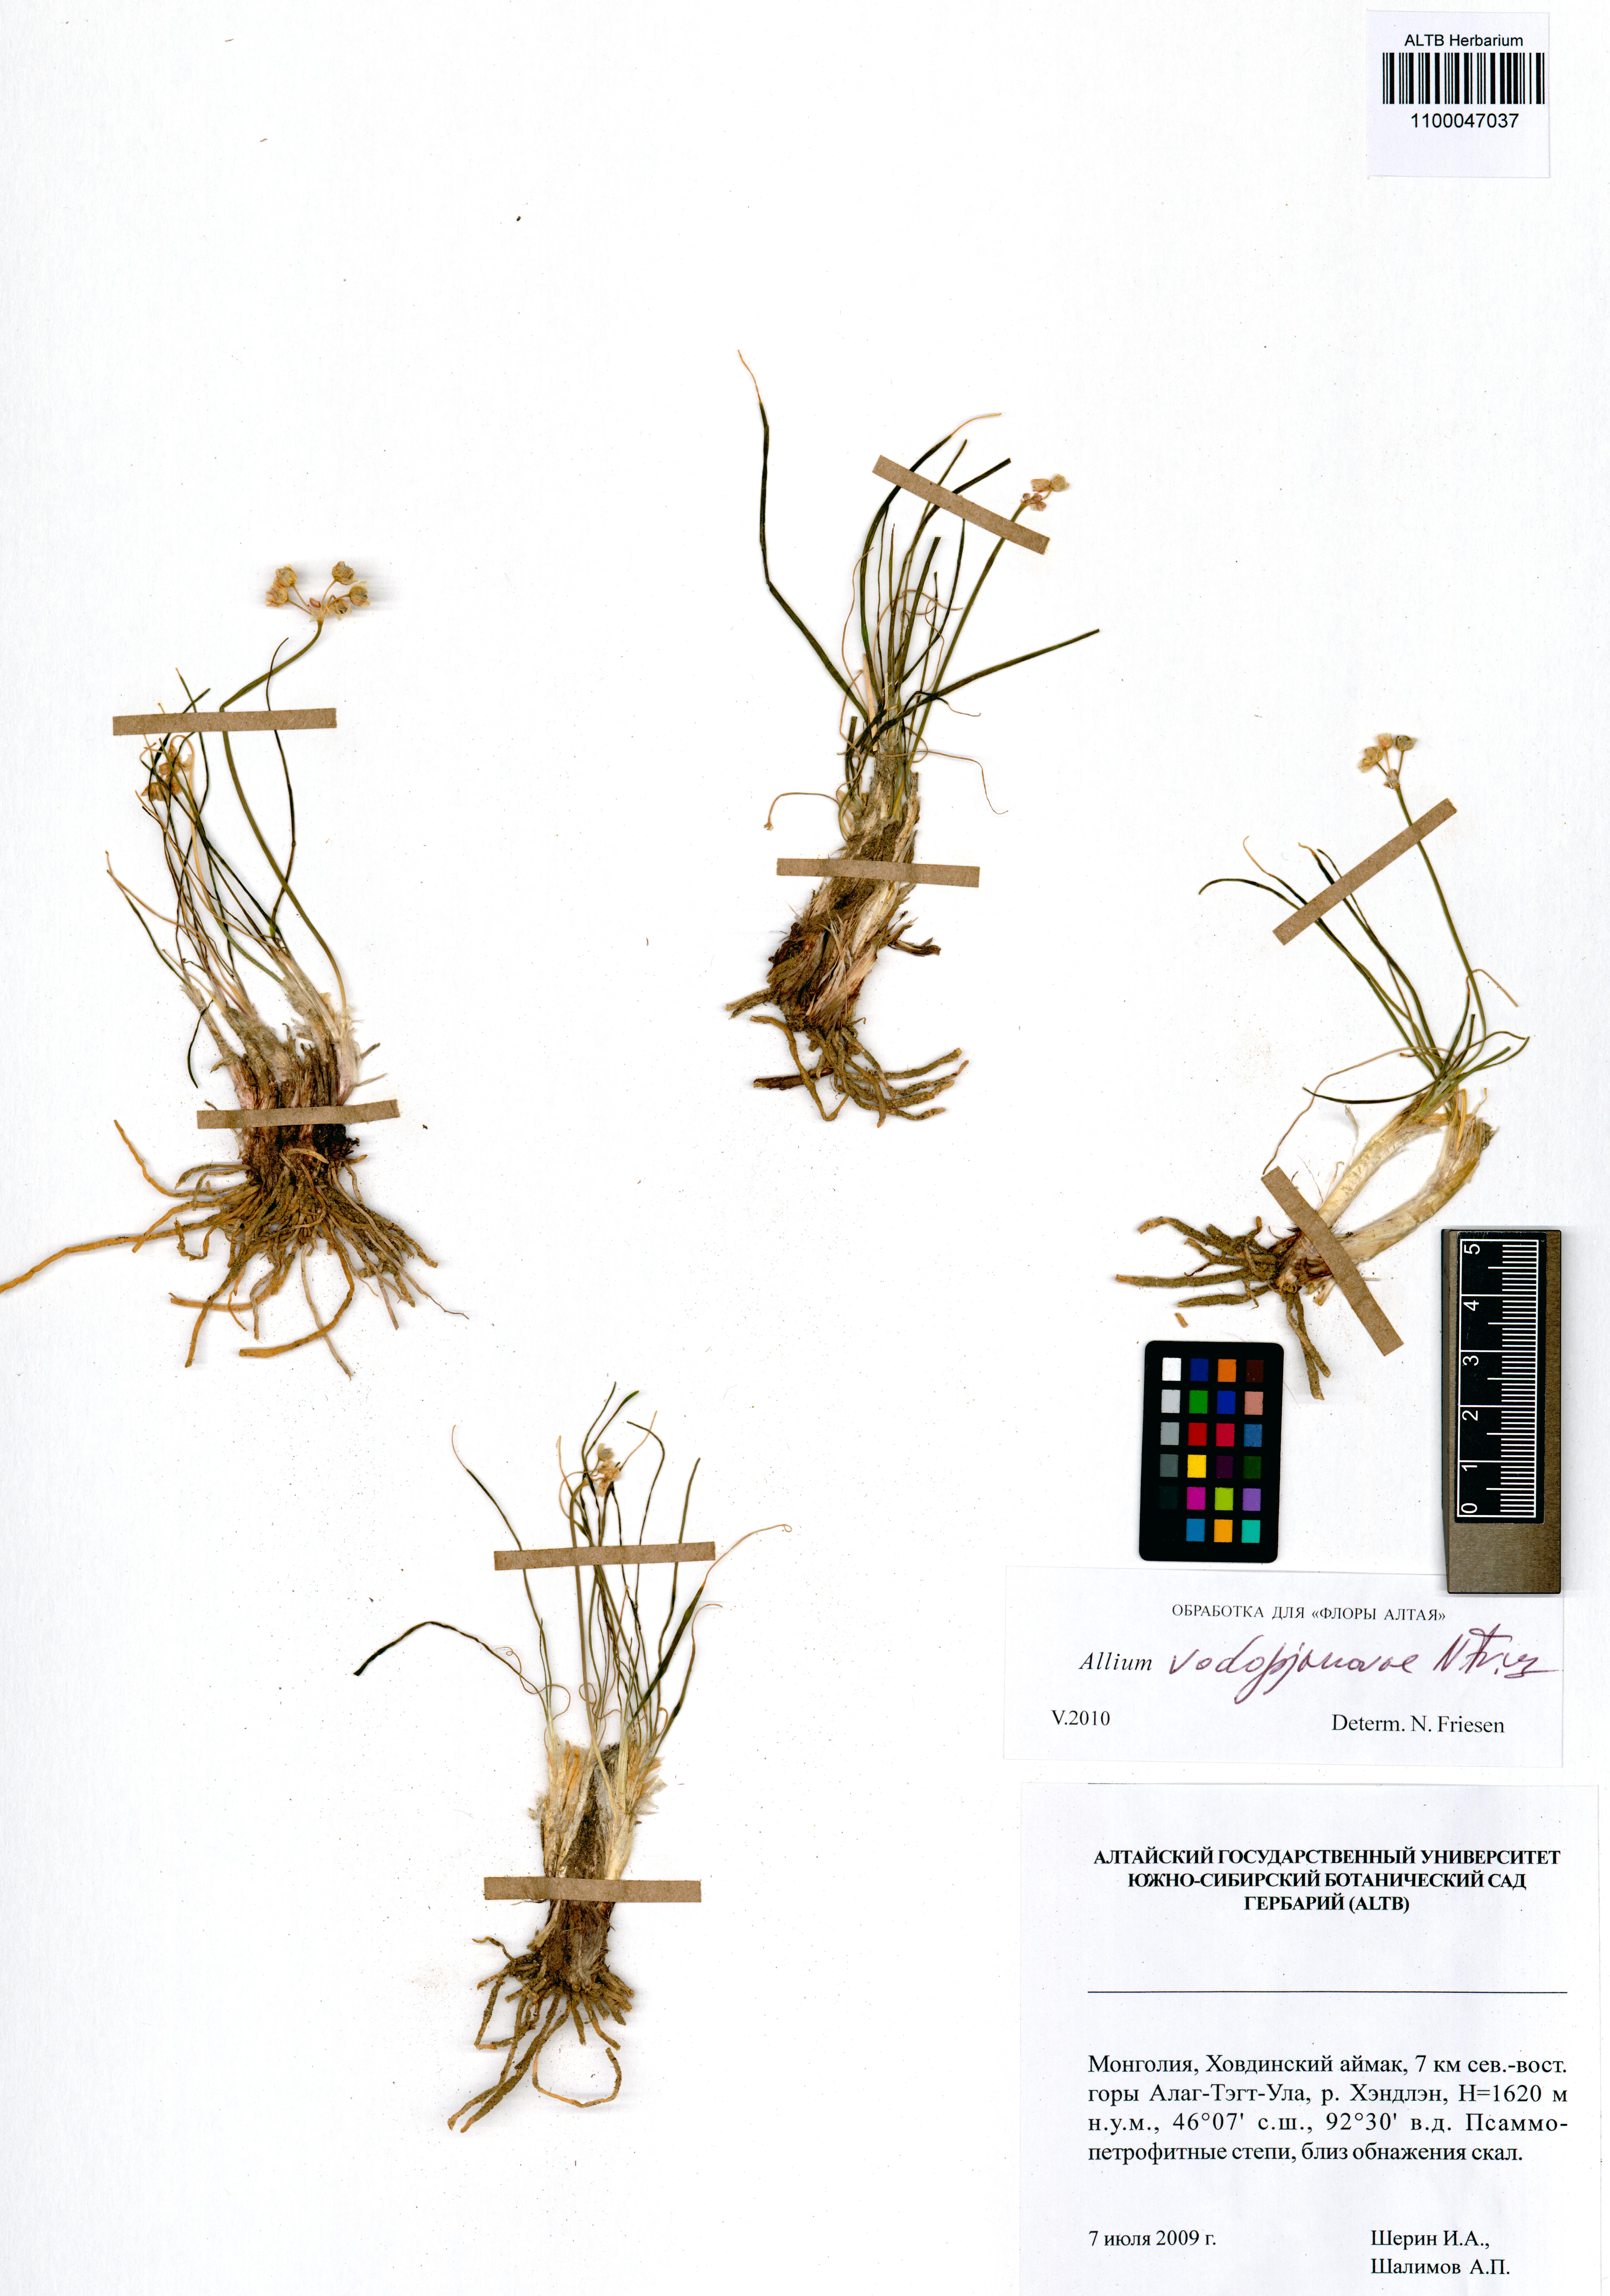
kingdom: Plantae
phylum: Tracheophyta
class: Liliopsida
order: Asparagales
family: Amaryllidaceae
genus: Allium
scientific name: Allium vodopjanovae
